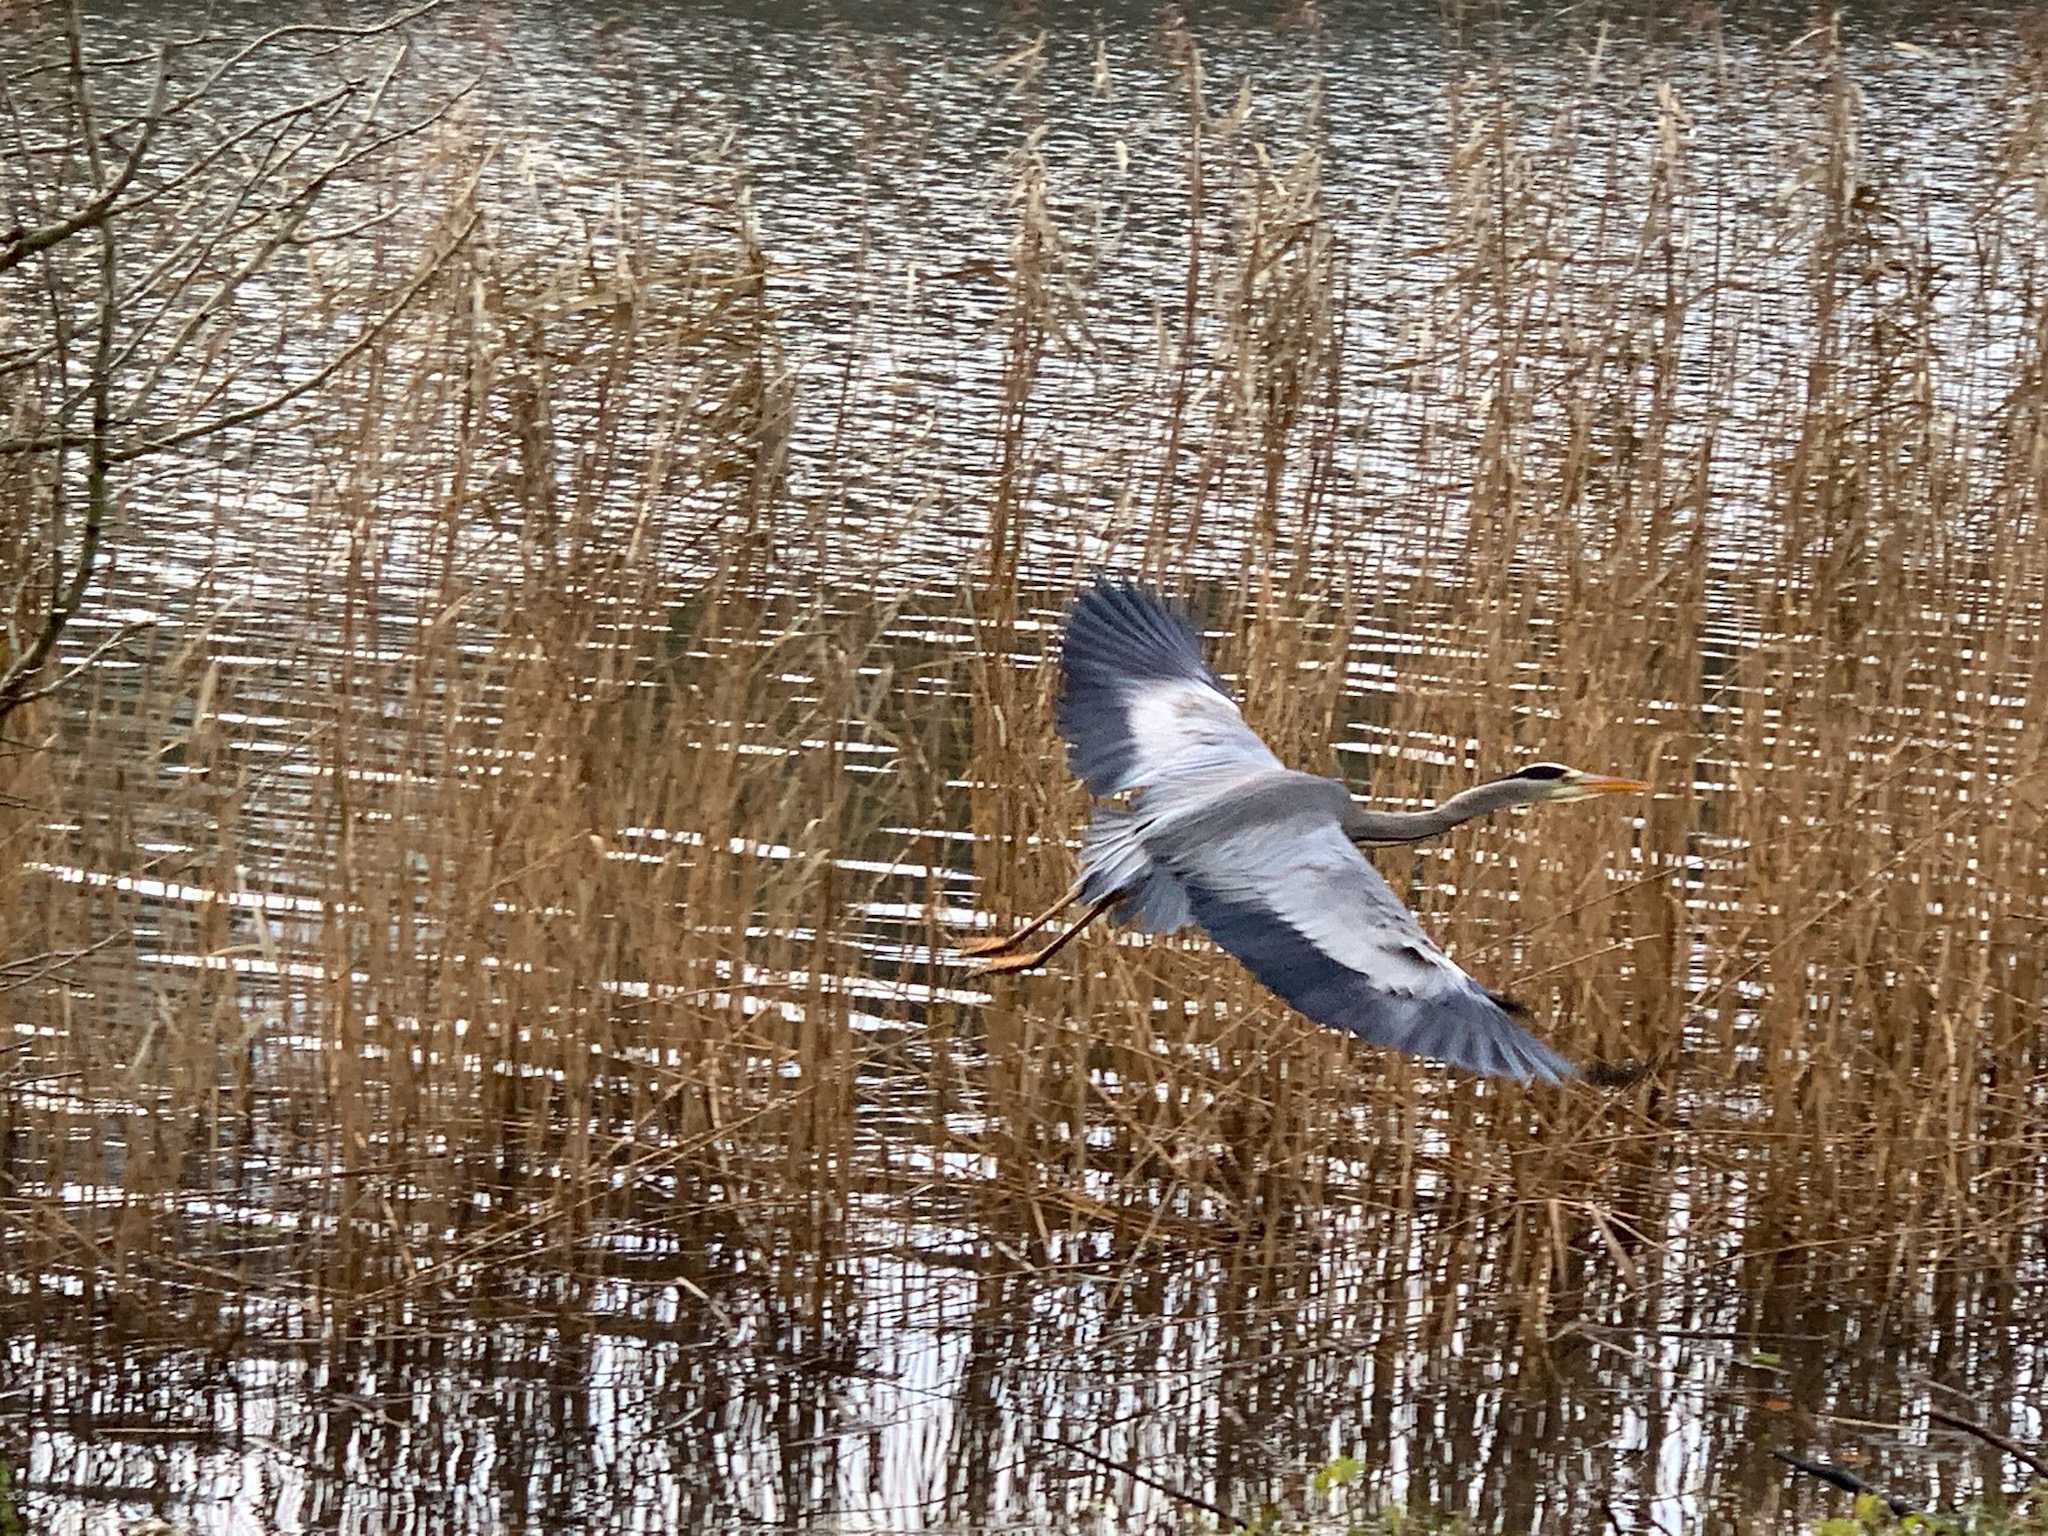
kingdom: Animalia
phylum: Chordata
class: Aves
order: Pelecaniformes
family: Ardeidae
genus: Ardea
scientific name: Ardea cinerea
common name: Fiskehejre
